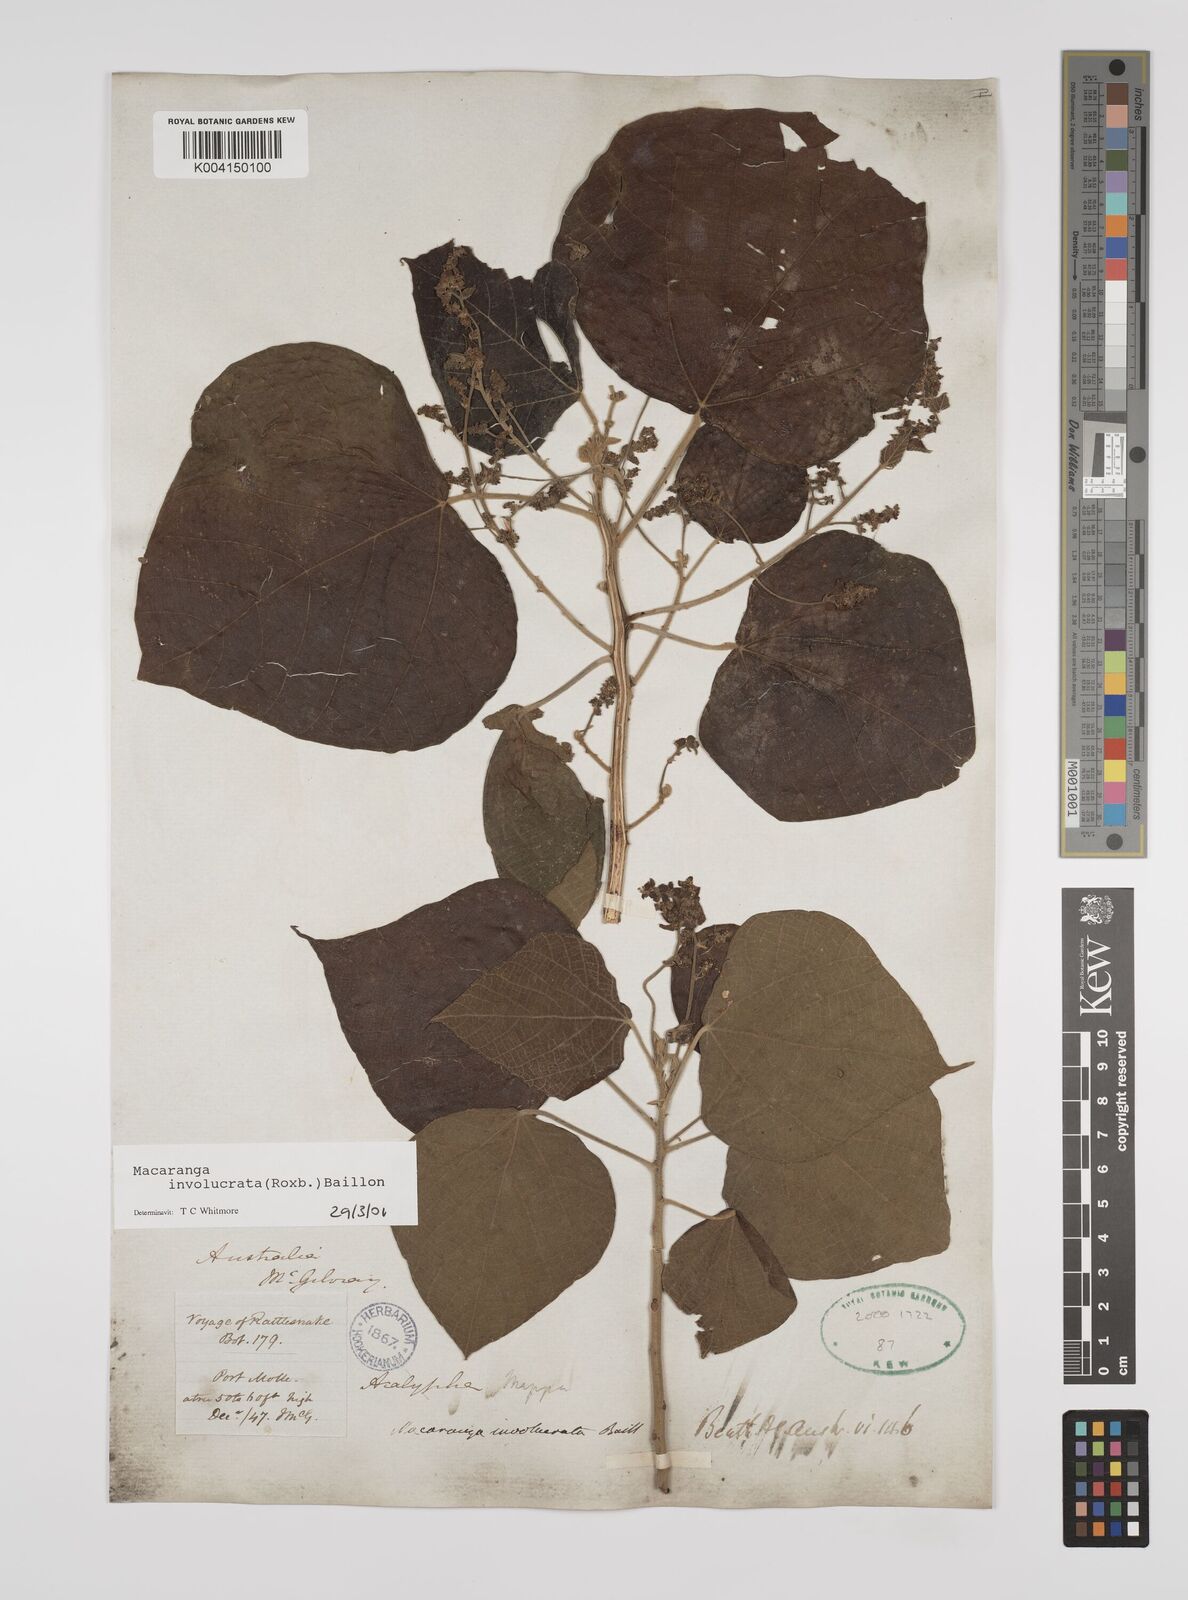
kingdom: Plantae
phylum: Tracheophyta
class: Magnoliopsida
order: Malpighiales
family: Euphorbiaceae
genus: Macaranga
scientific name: Macaranga involucrata
